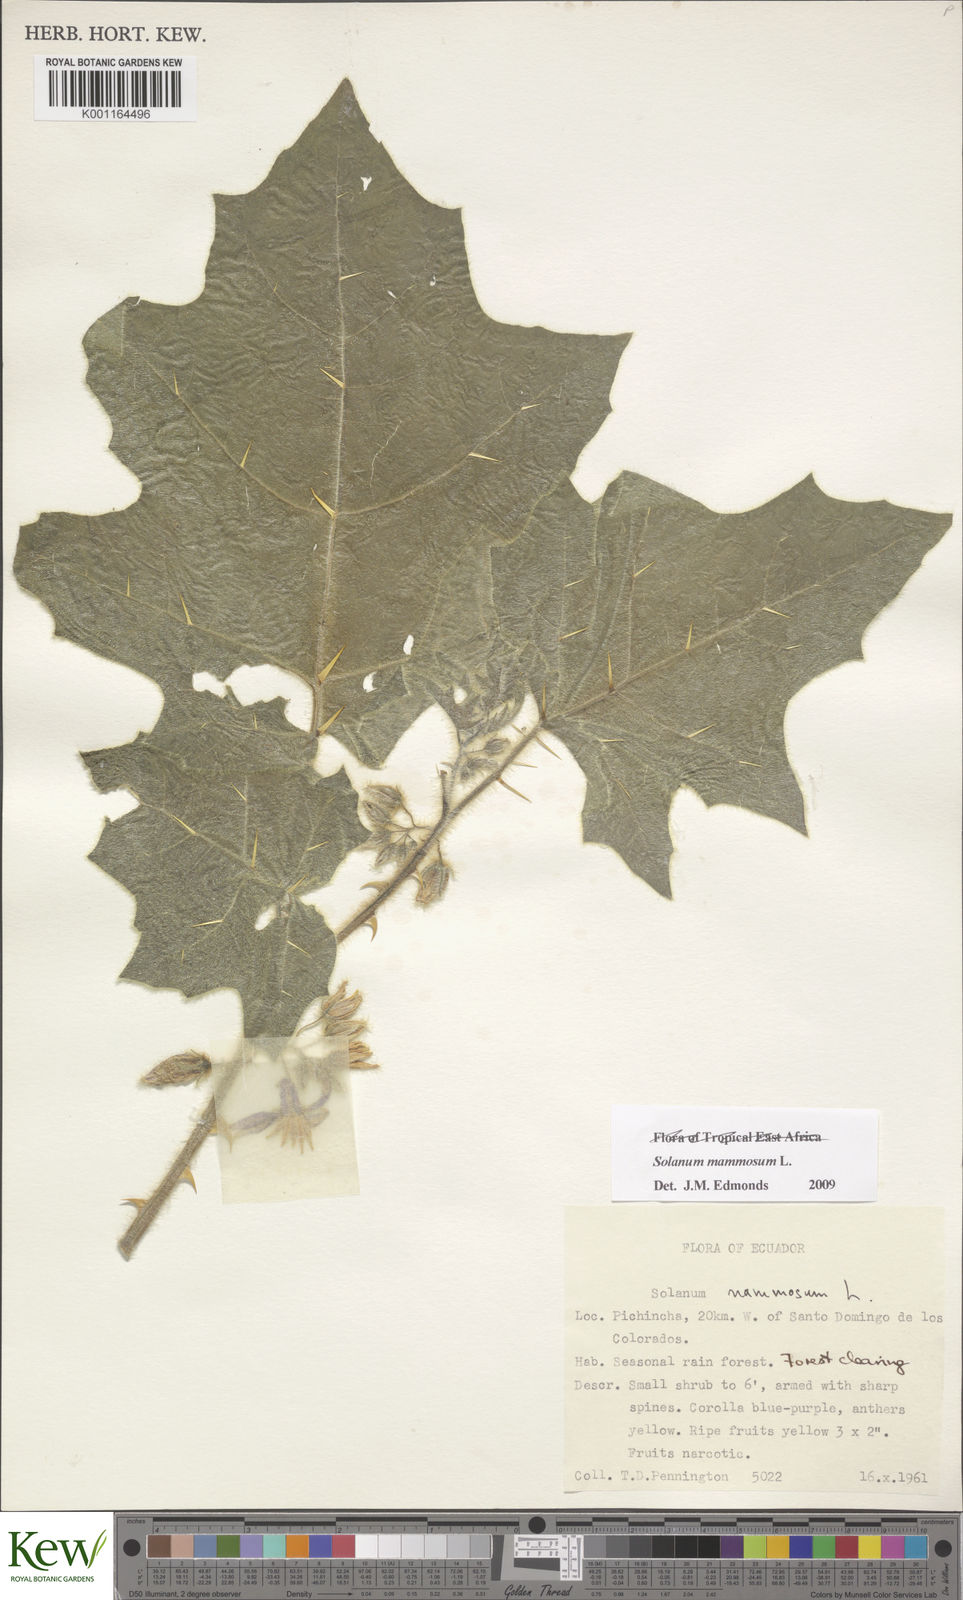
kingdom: Plantae
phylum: Tracheophyta
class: Magnoliopsida
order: Solanales
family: Solanaceae
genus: Solanum
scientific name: Solanum mammosum
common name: Nipple fruit
